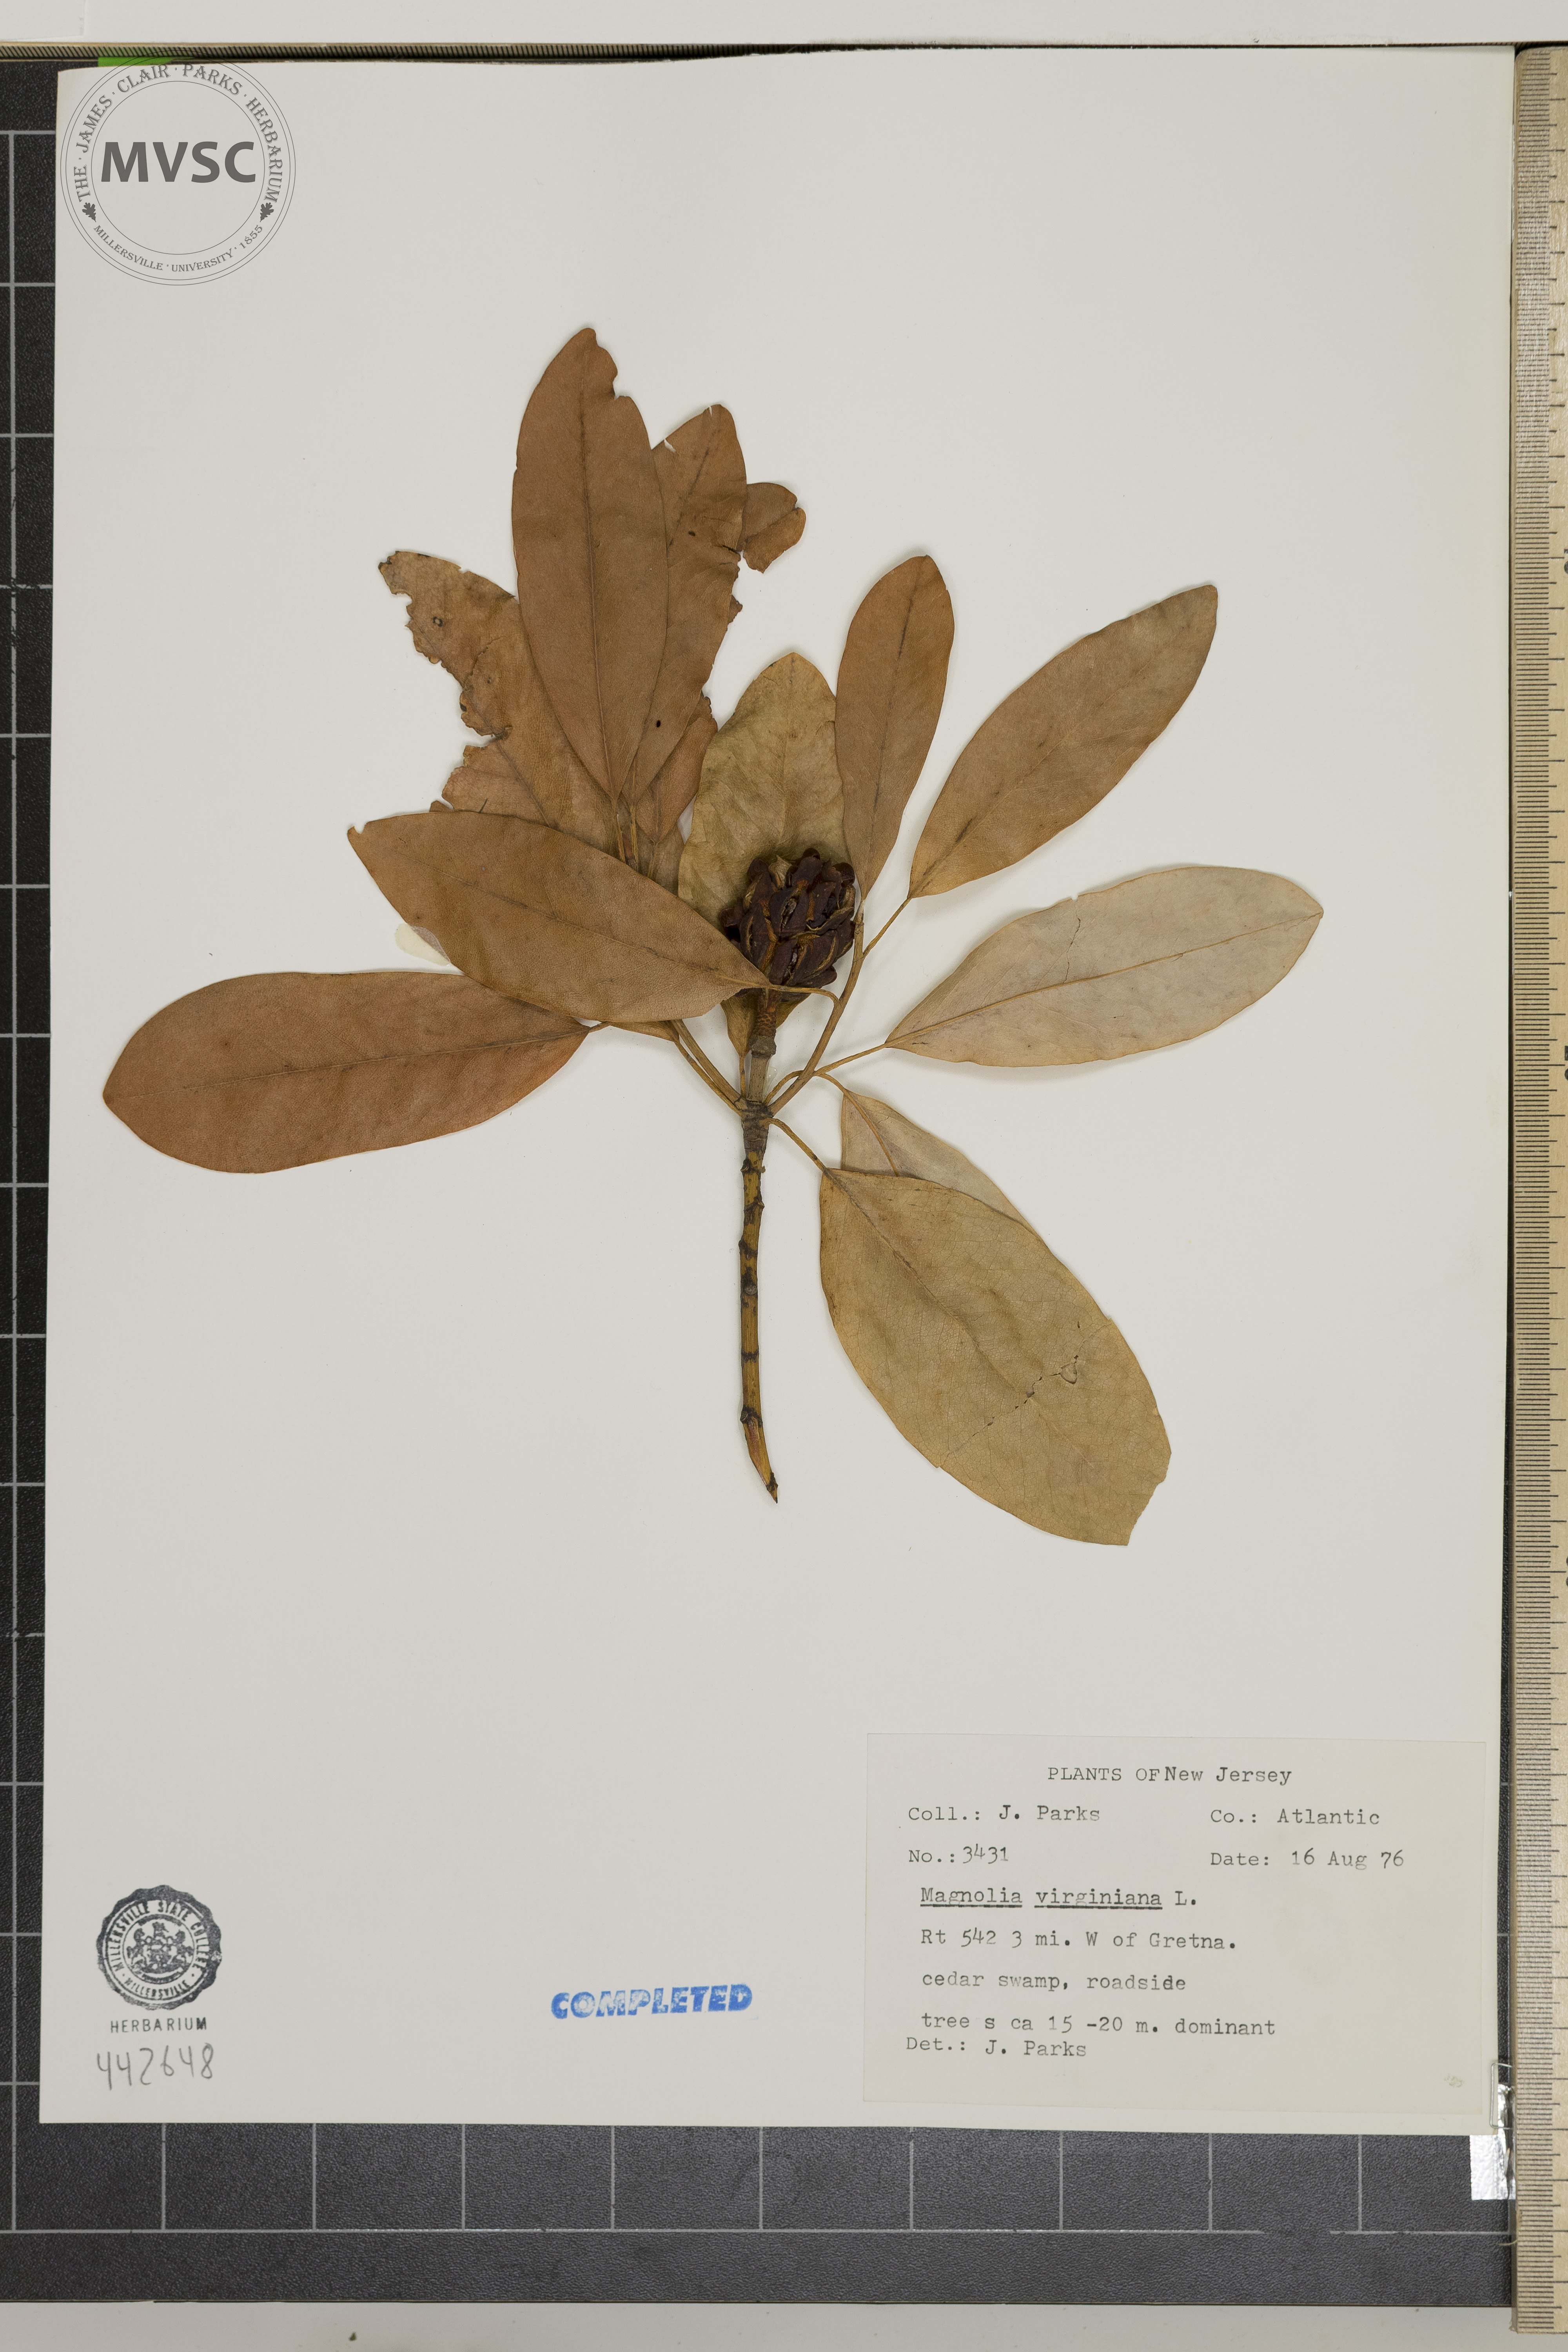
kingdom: Plantae
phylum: Tracheophyta
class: Magnoliopsida
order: Magnoliales
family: Magnoliaceae
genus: Magnolia
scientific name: Magnolia virginiana
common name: Swamp bay
